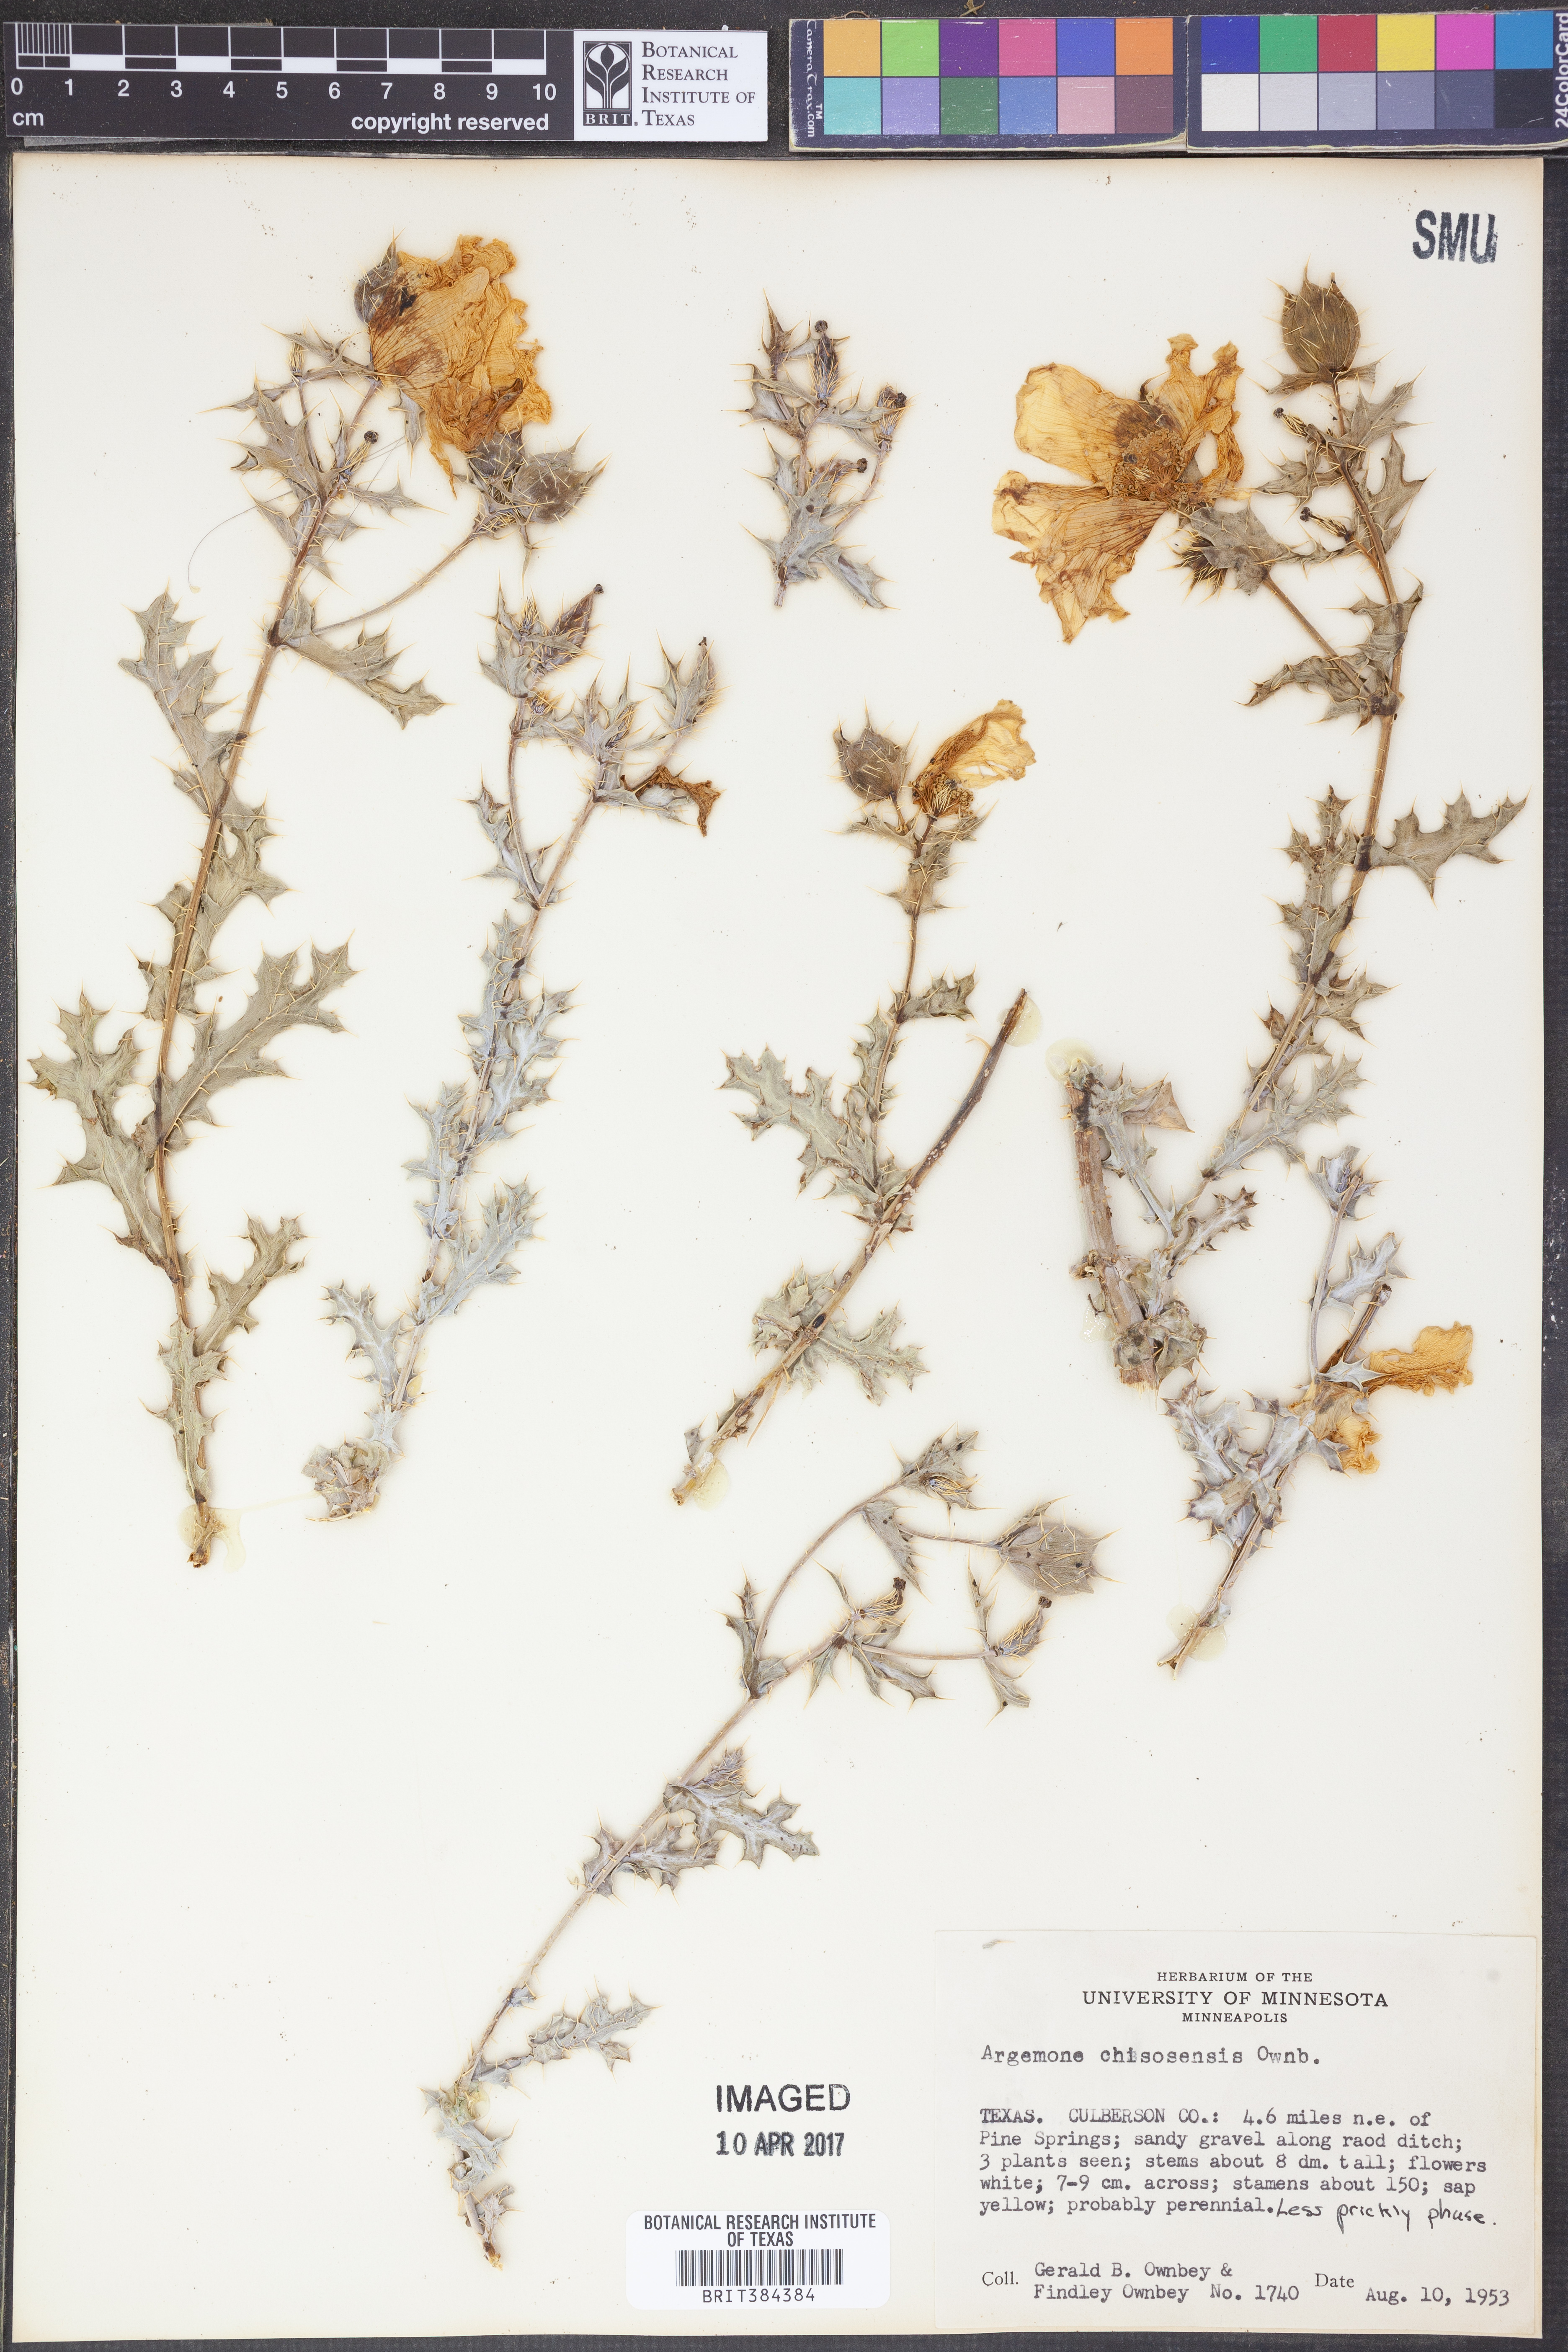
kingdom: Plantae
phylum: Tracheophyta
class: Magnoliopsida
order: Ranunculales
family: Papaveraceae
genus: Argemone
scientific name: Argemone chisosensis
